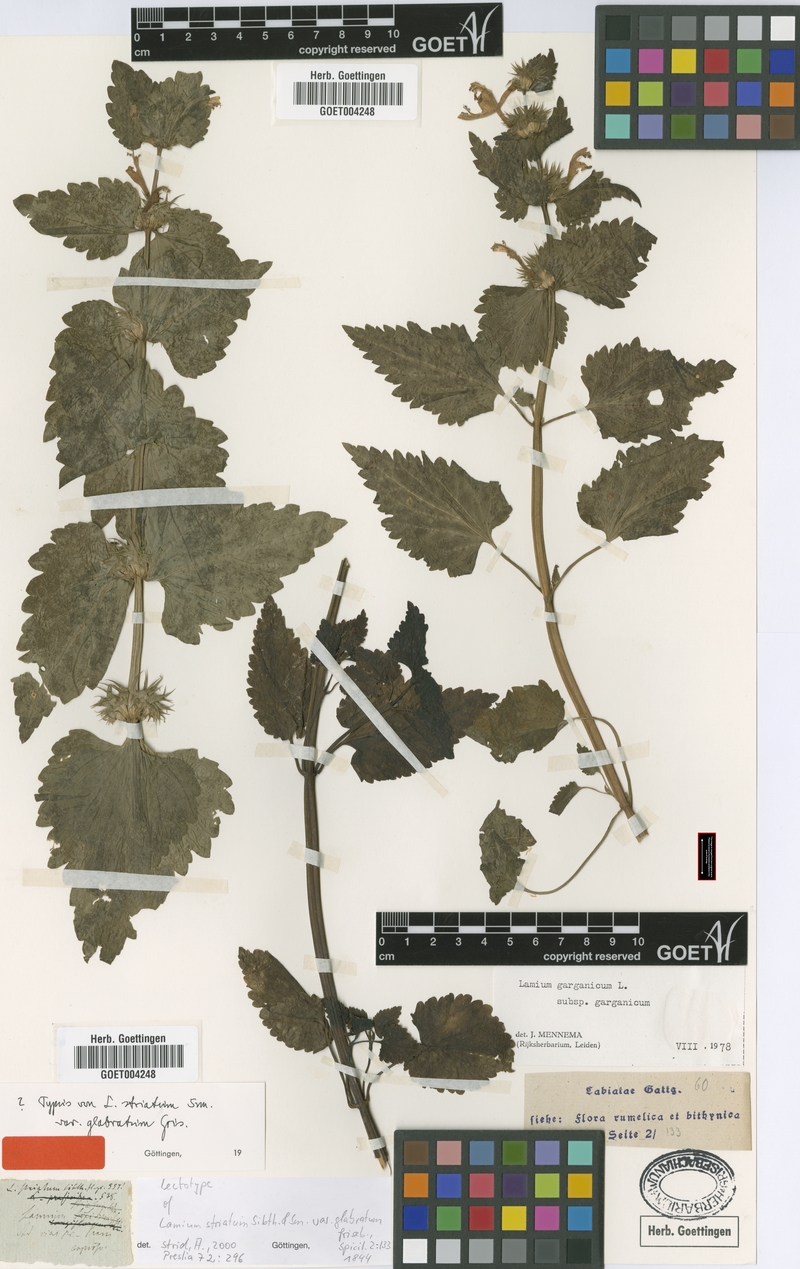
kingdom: Plantae
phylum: Tracheophyta
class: Magnoliopsida
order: Lamiales
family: Lamiaceae
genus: Lamium
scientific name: Lamium garganicum
